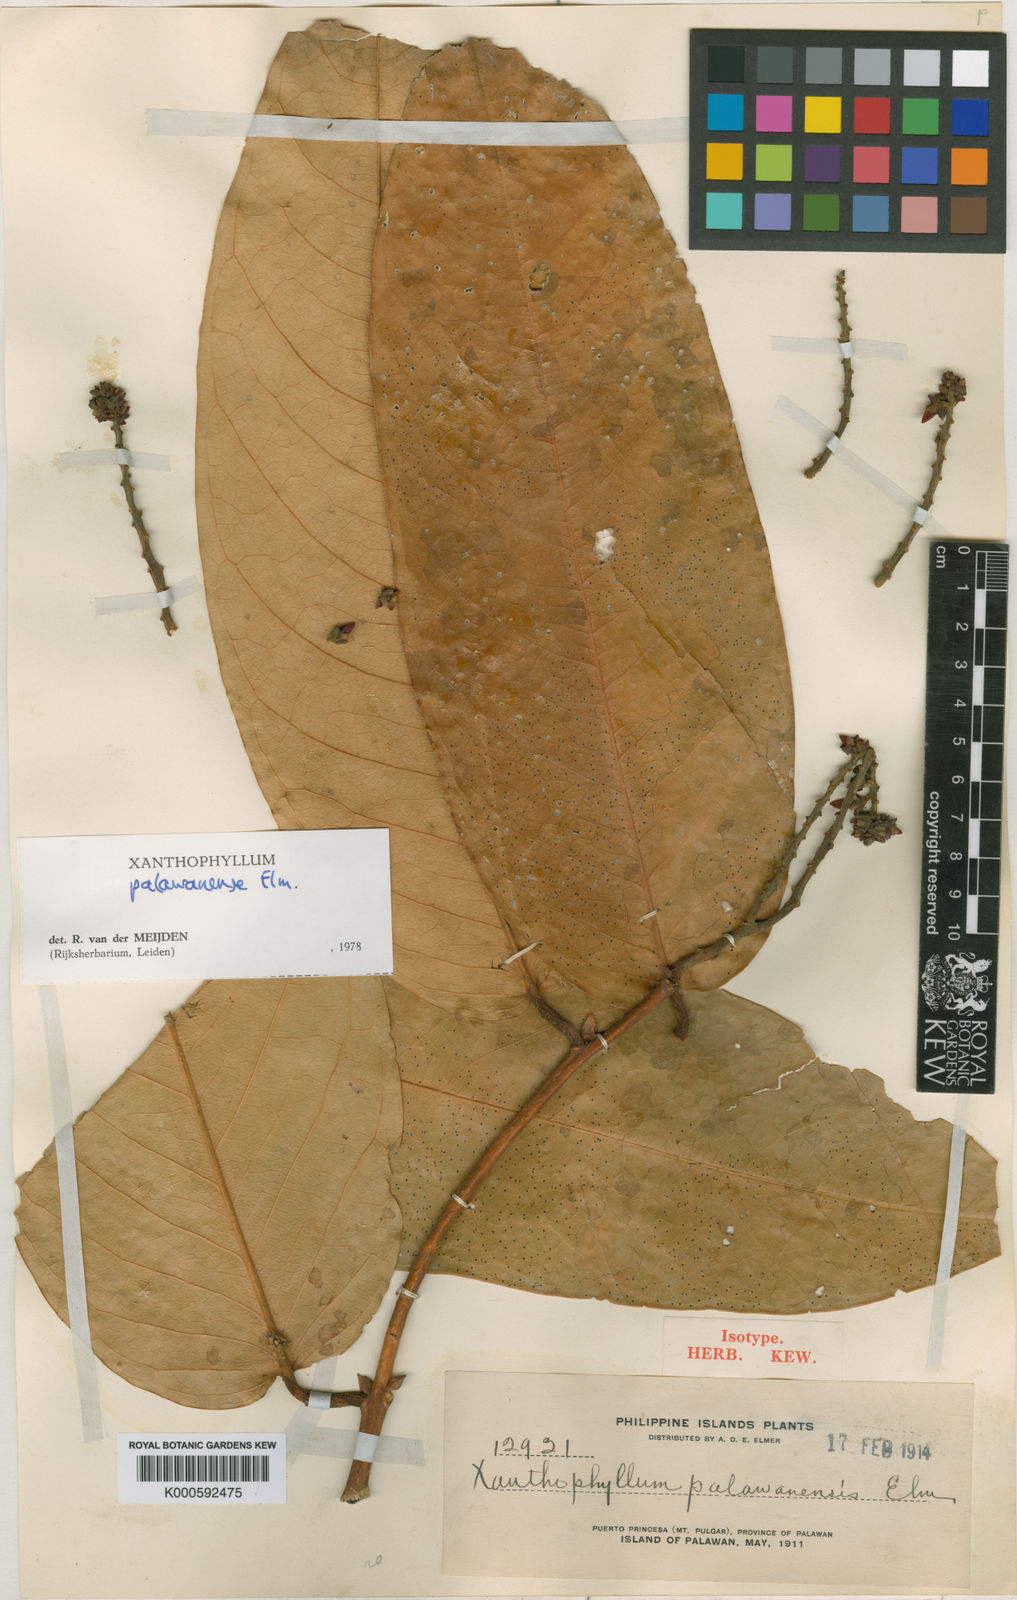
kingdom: Plantae
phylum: Tracheophyta
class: Magnoliopsida
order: Fabales
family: Polygalaceae
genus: Xanthophyllum
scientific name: Xanthophyllum palawanense
